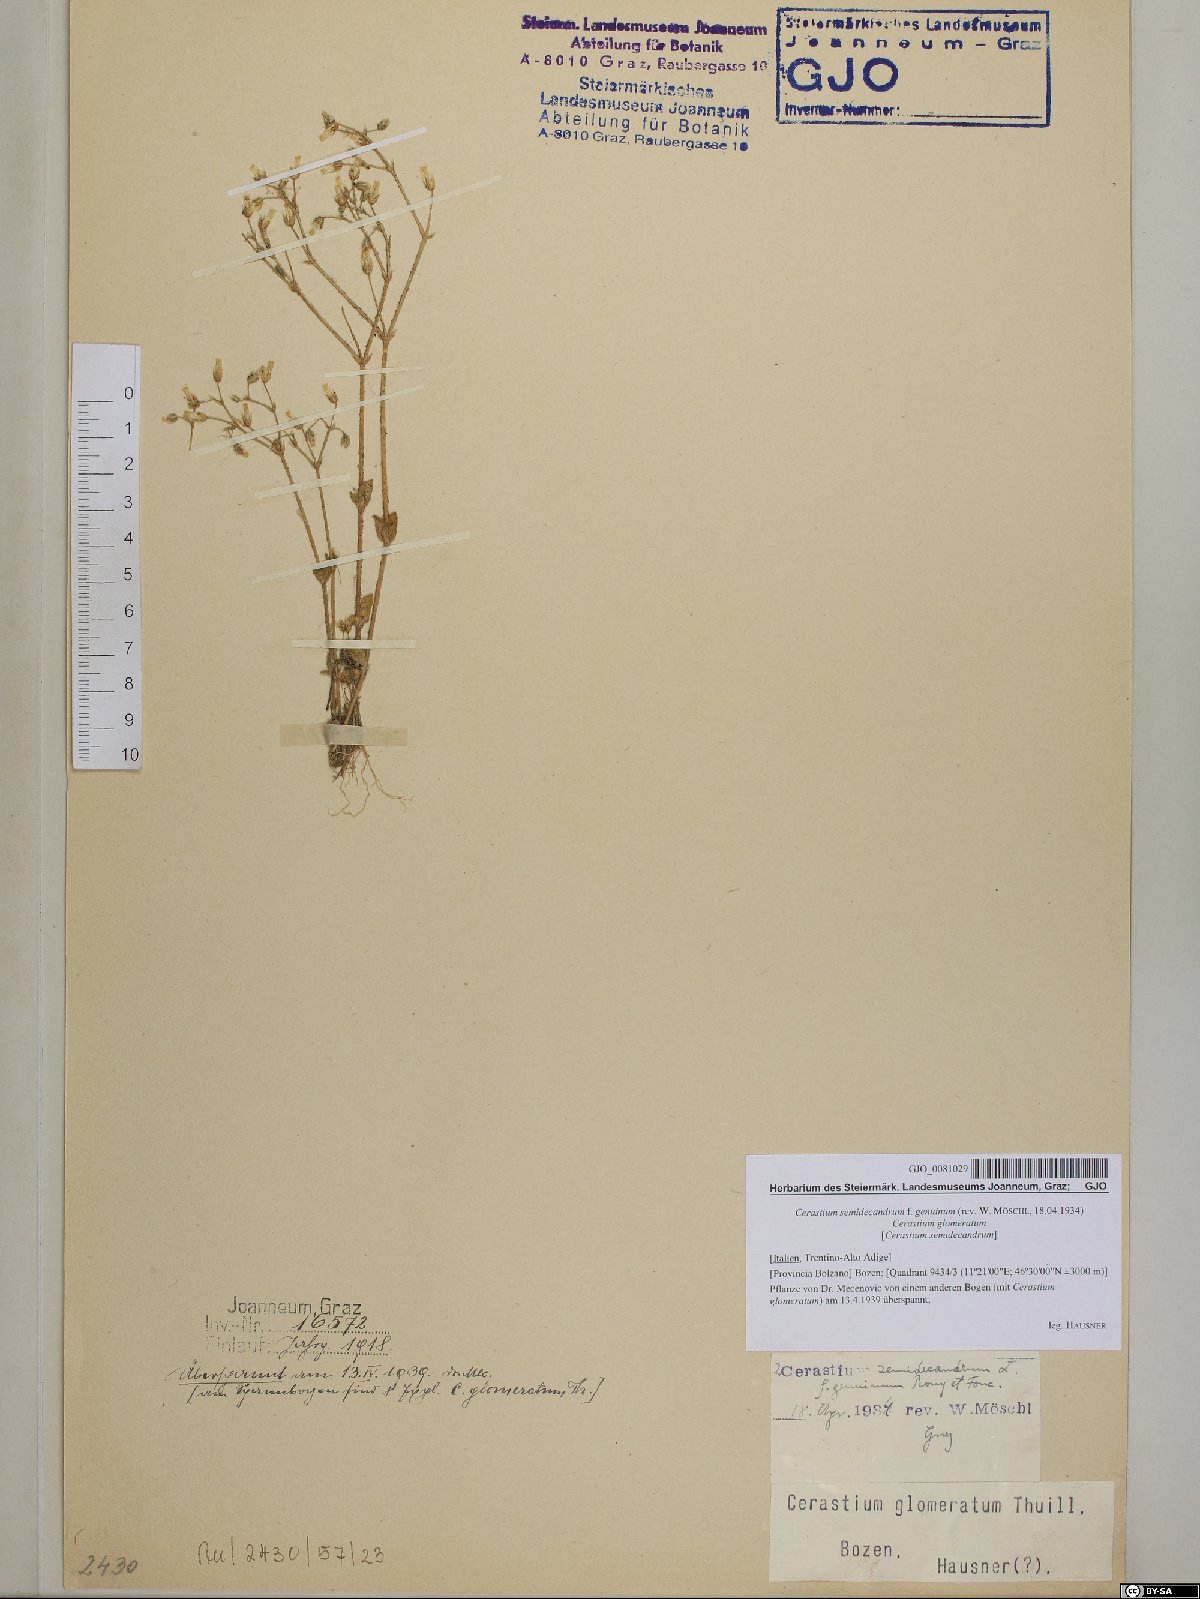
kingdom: Plantae
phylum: Tracheophyta
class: Magnoliopsida
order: Caryophyllales
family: Caryophyllaceae
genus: Cerastium
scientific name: Cerastium semidecandrum
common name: Little mouse-ear
